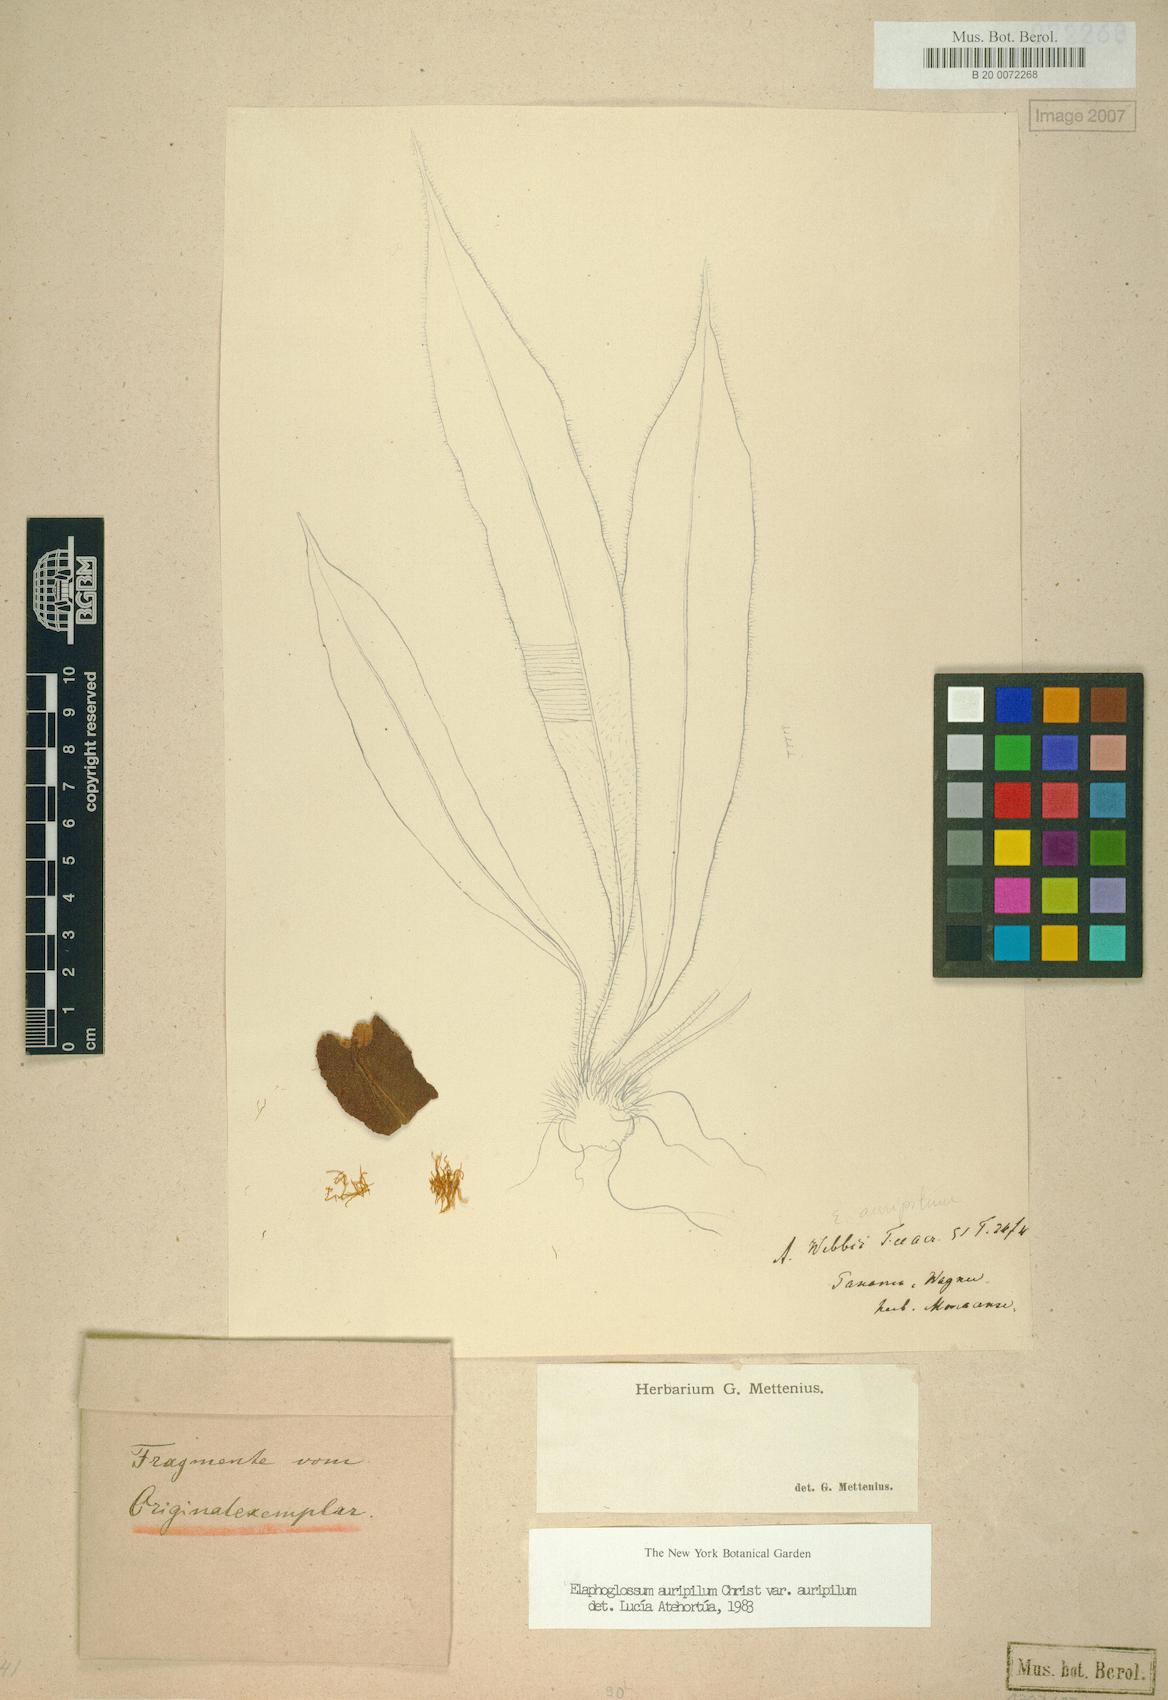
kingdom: Plantae
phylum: Tracheophyta
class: Polypodiopsida
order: Polypodiales
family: Dryopteridaceae
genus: Elaphoglossum
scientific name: Elaphoglossum auripilum
